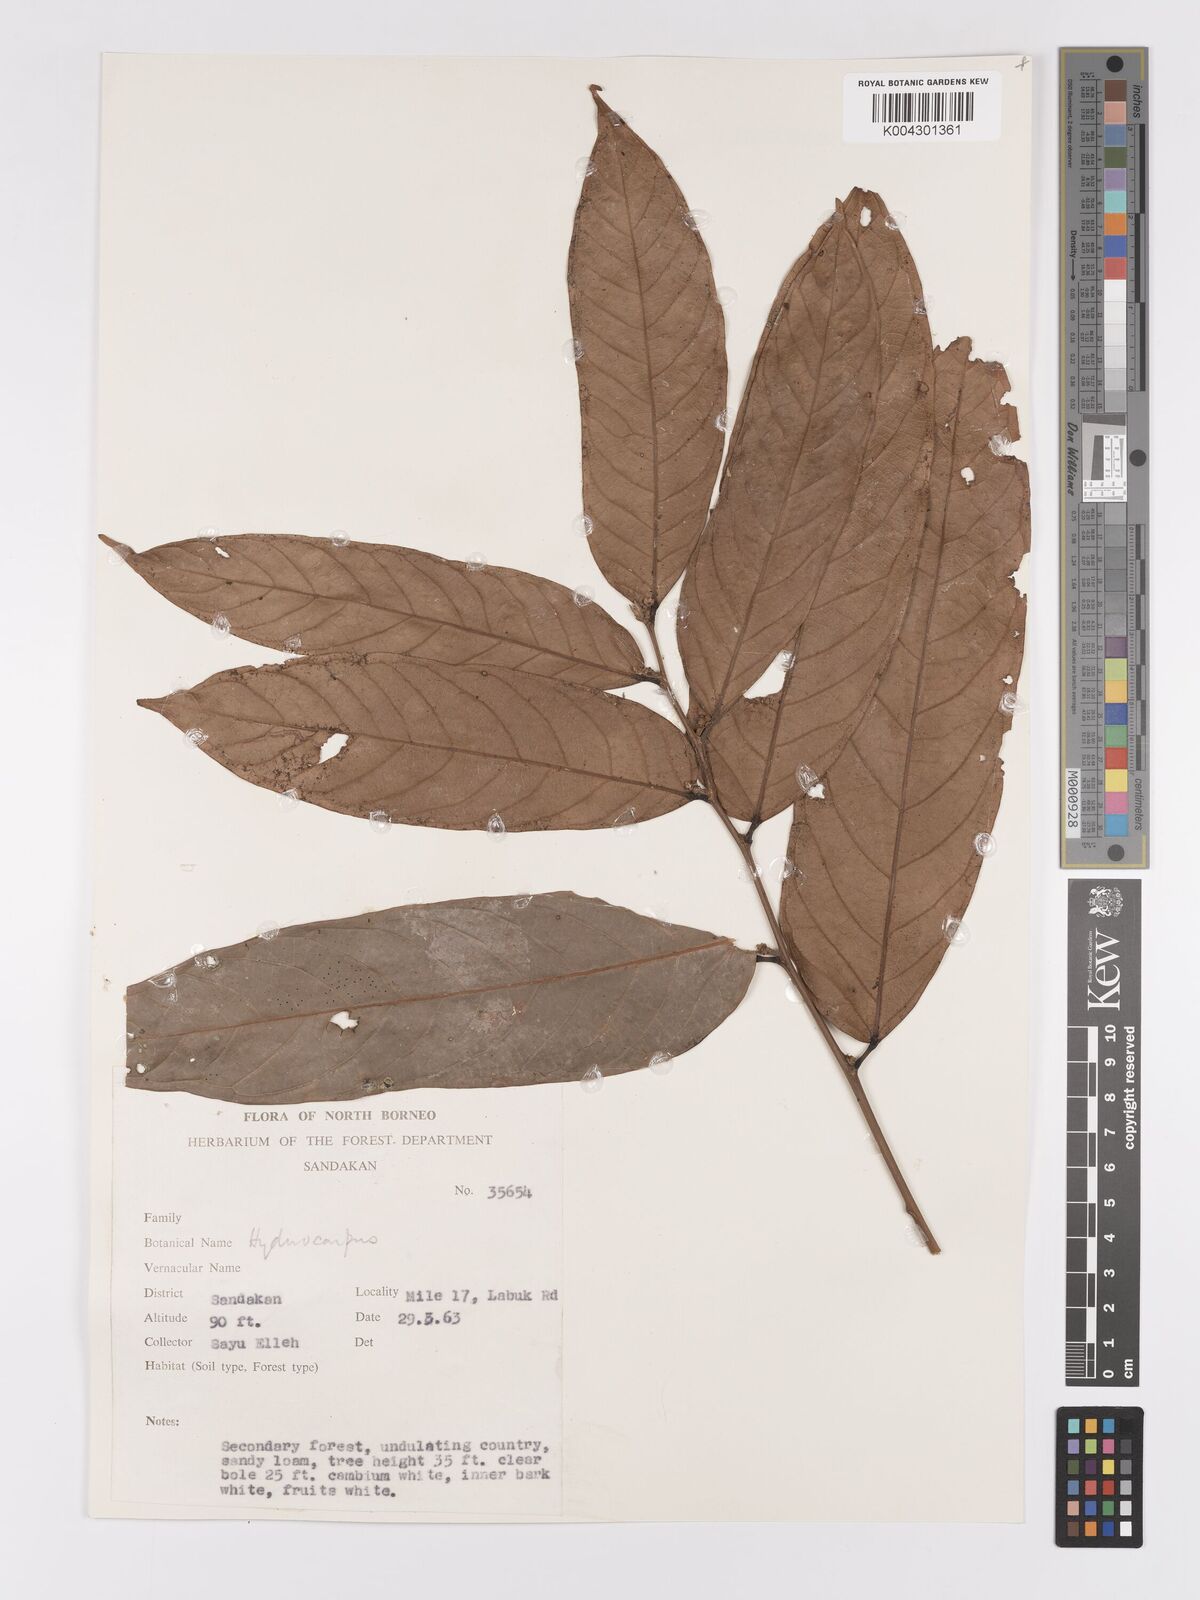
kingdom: Plantae
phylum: Tracheophyta
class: Magnoliopsida
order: Malpighiales
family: Achariaceae
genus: Hydnocarpus
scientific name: Hydnocarpus
